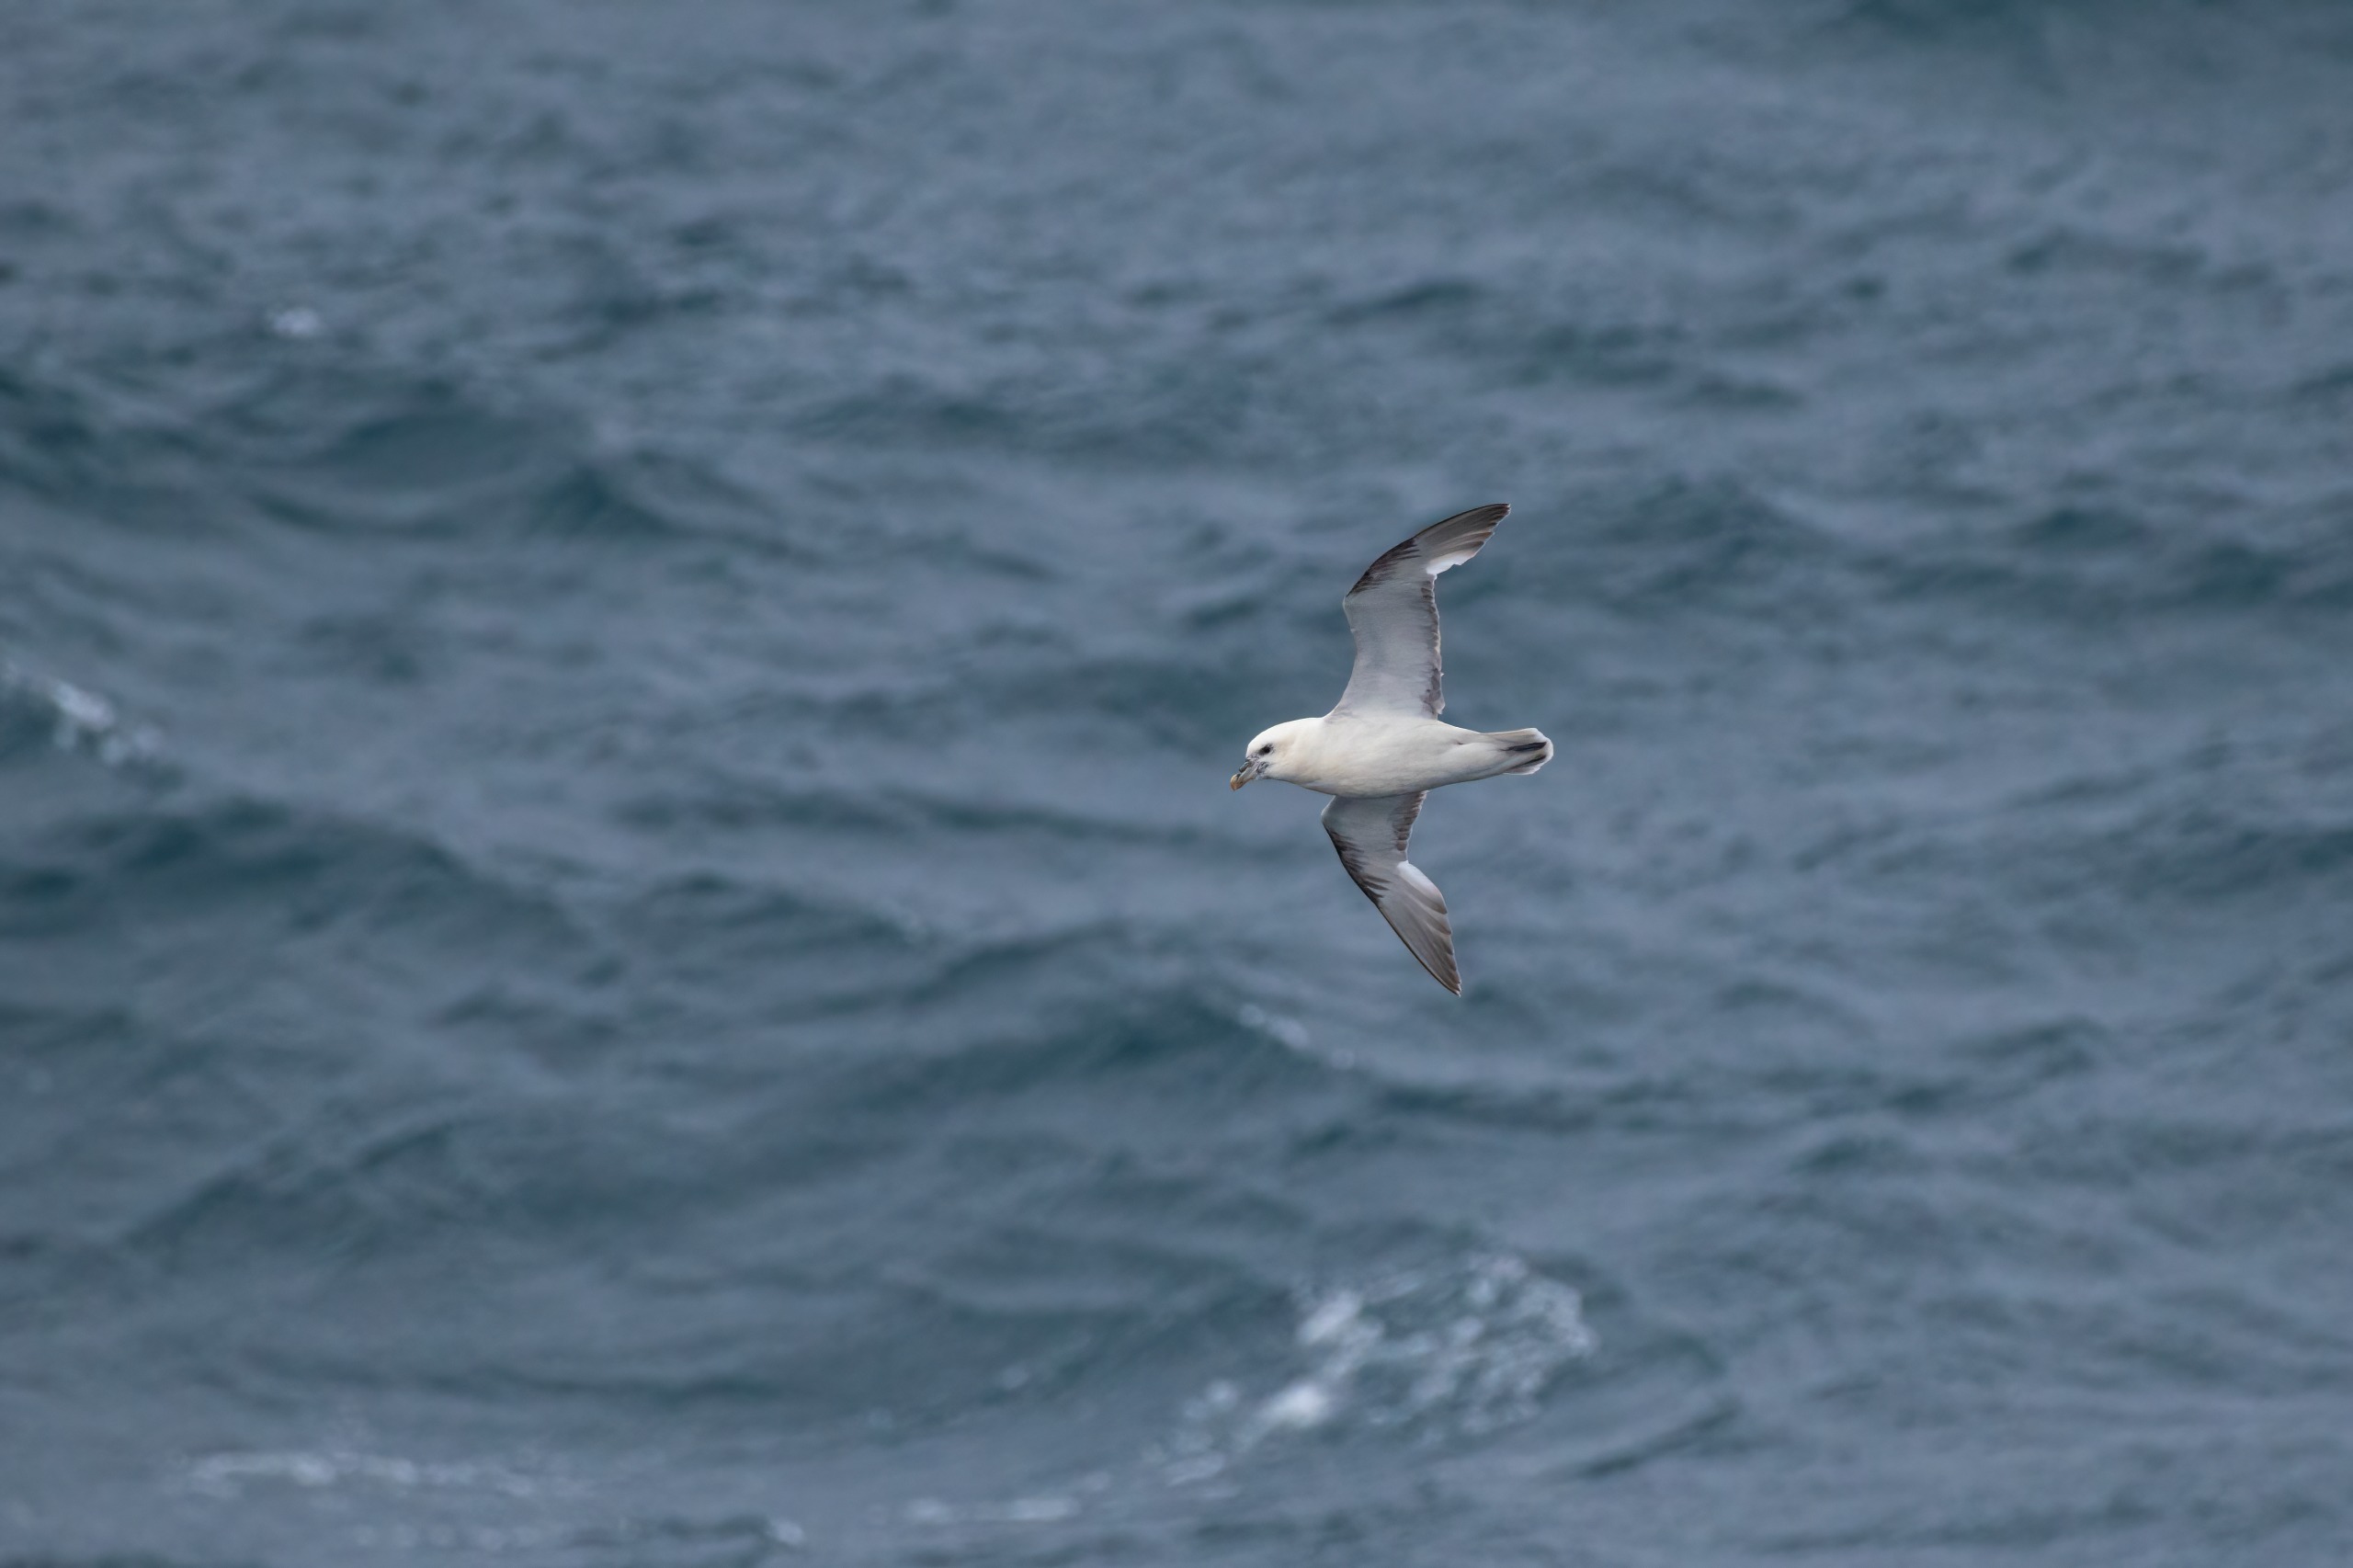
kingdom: Animalia
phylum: Chordata
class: Aves
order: Procellariiformes
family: Procellariidae
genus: Fulmarus
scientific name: Fulmarus glacialis
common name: Mallemuk
